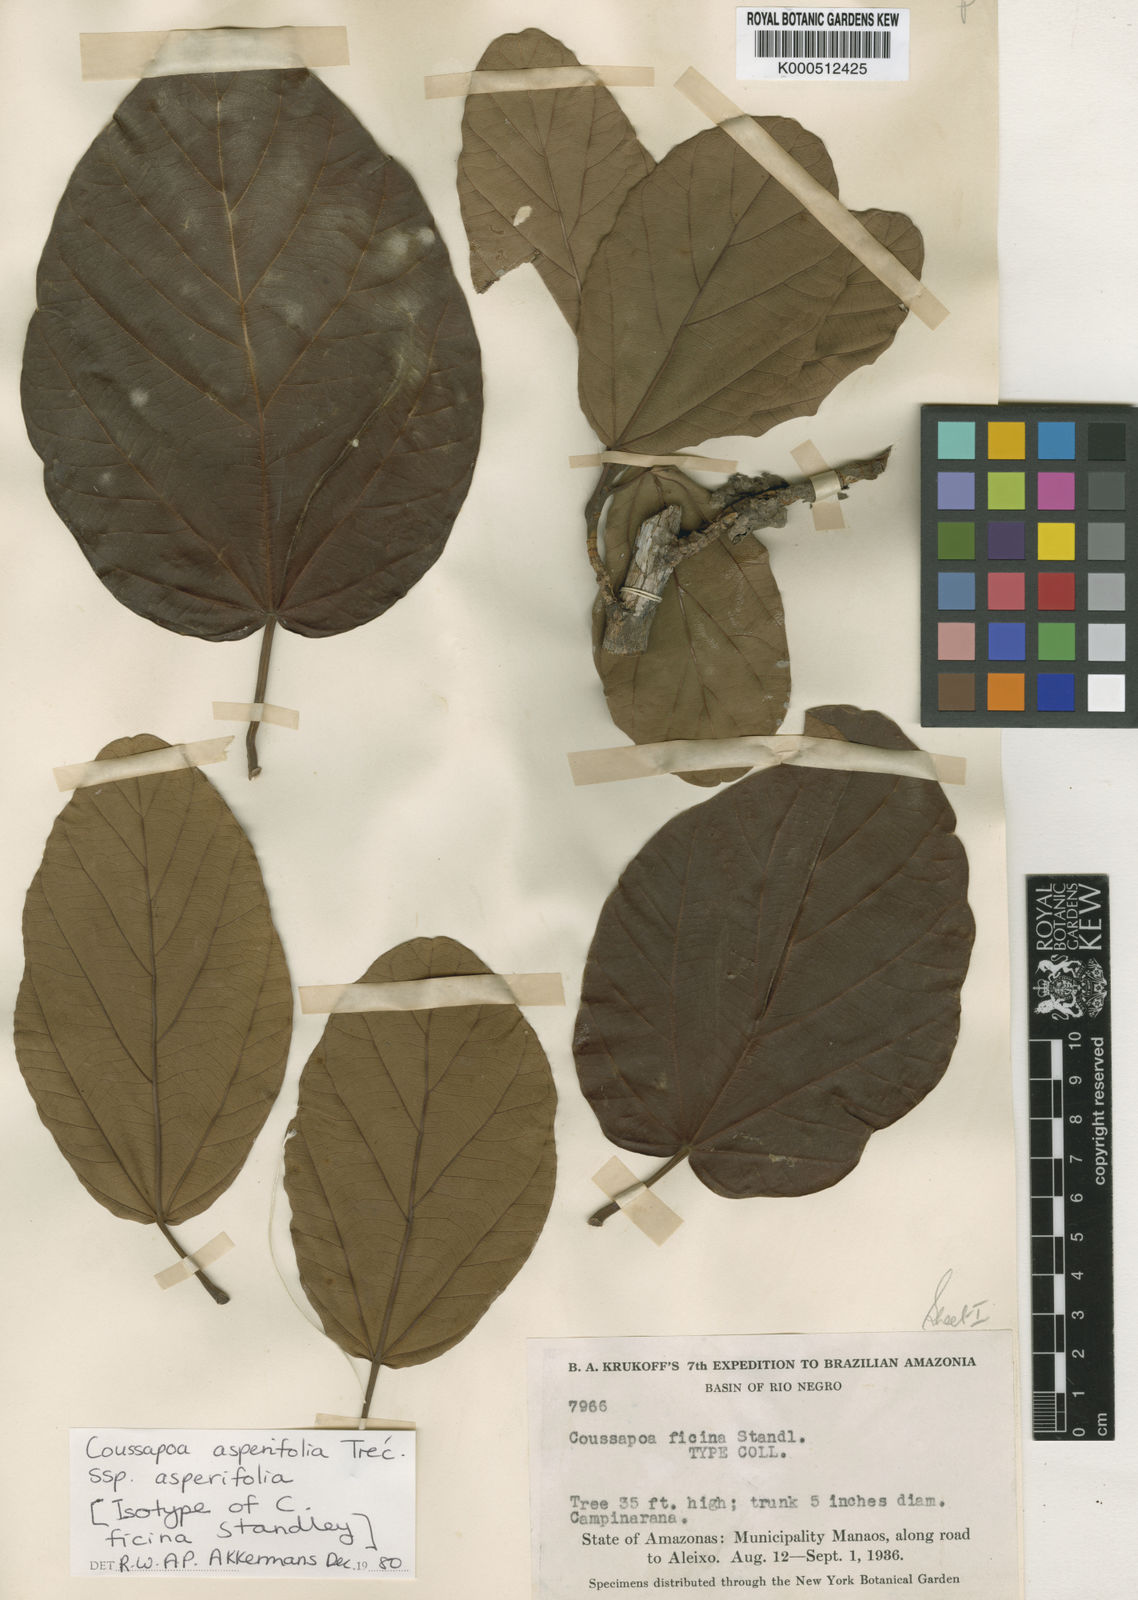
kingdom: Plantae
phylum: Tracheophyta
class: Magnoliopsida
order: Rosales
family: Urticaceae
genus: Coussapoa
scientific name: Coussapoa
